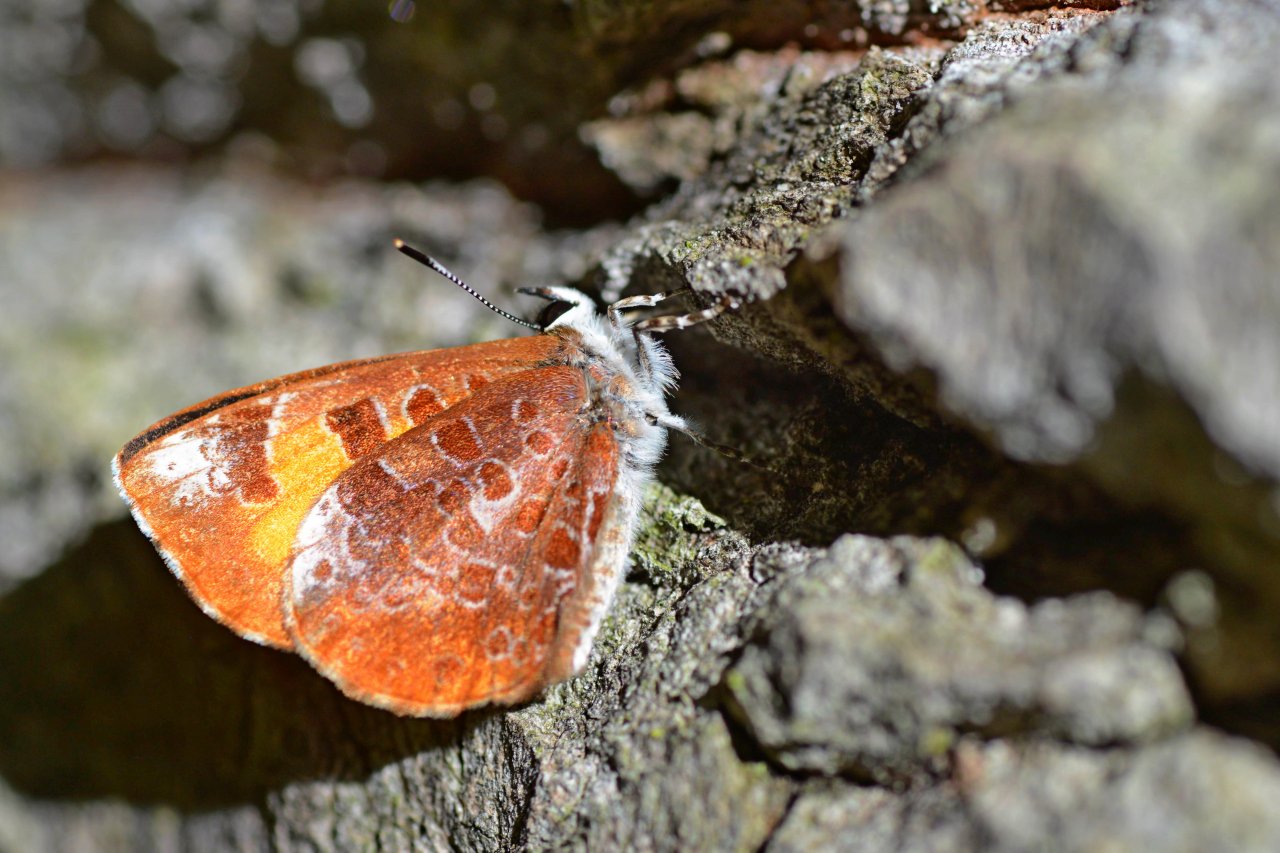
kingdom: Animalia
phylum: Arthropoda
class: Insecta
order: Lepidoptera
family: Lycaenidae
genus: Feniseca
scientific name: Feniseca tarquinius
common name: Harvester
